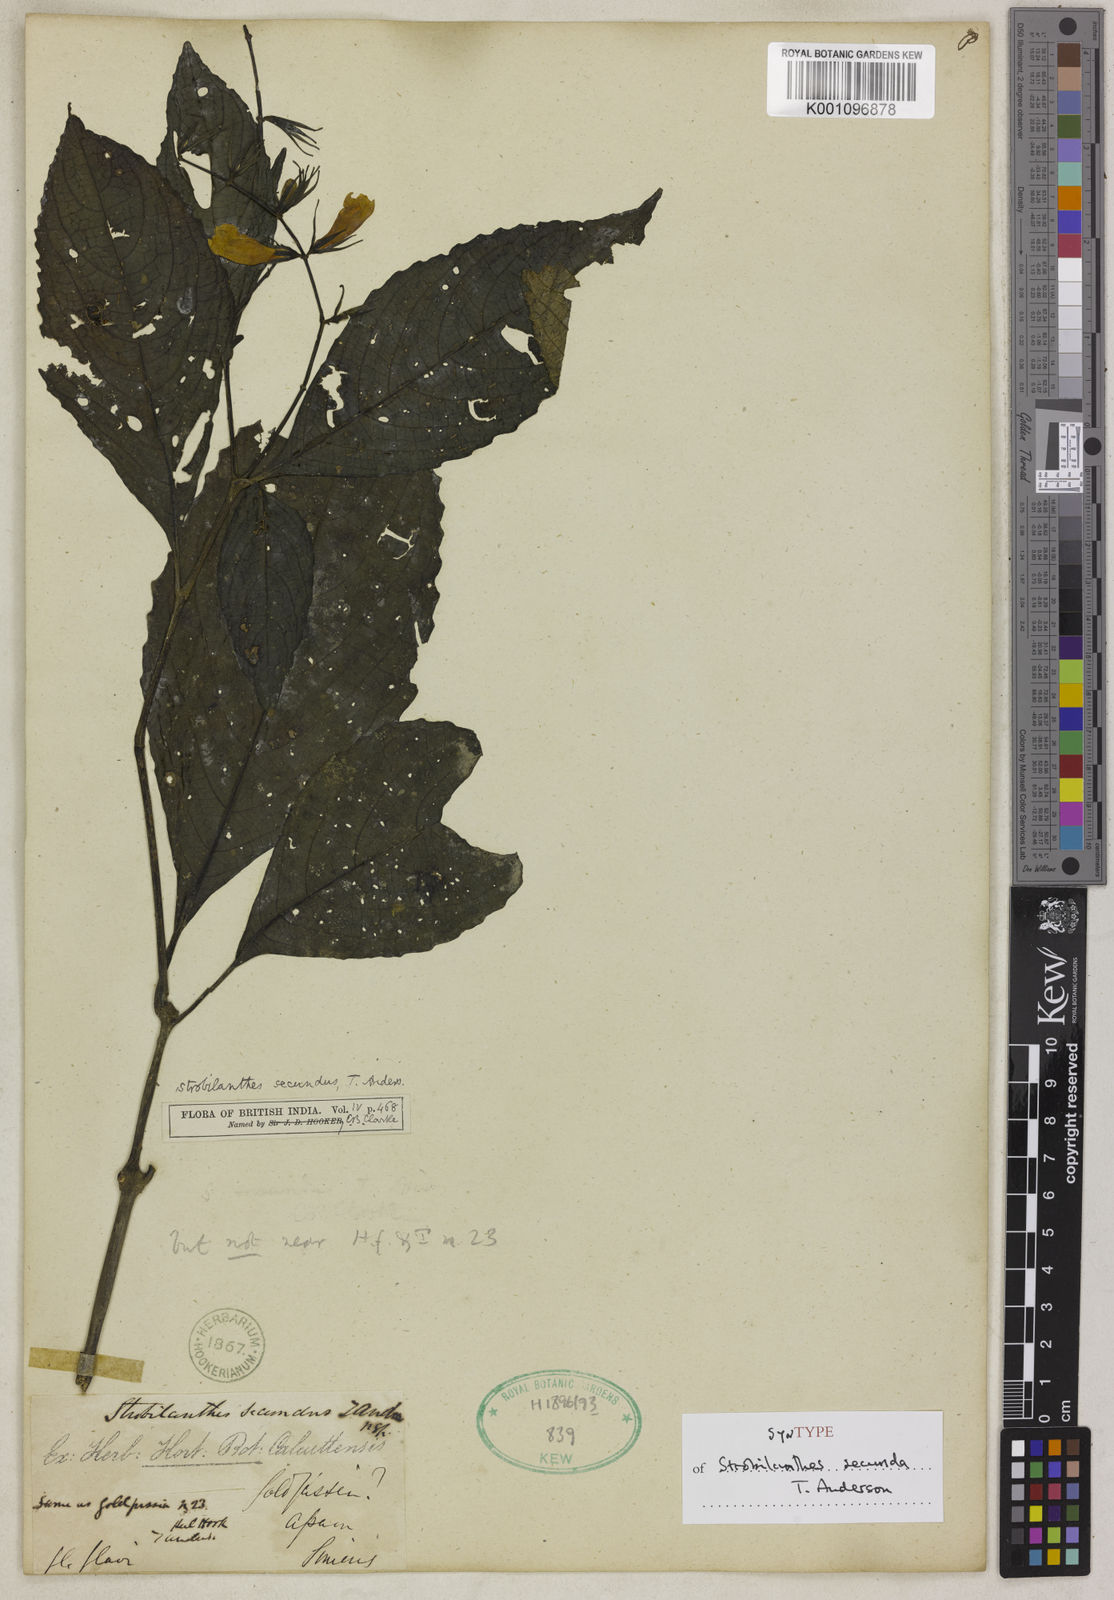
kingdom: Plantae
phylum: Tracheophyta
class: Magnoliopsida
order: Lamiales
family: Acanthaceae
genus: Strobilanthes
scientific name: Strobilanthes secunda
